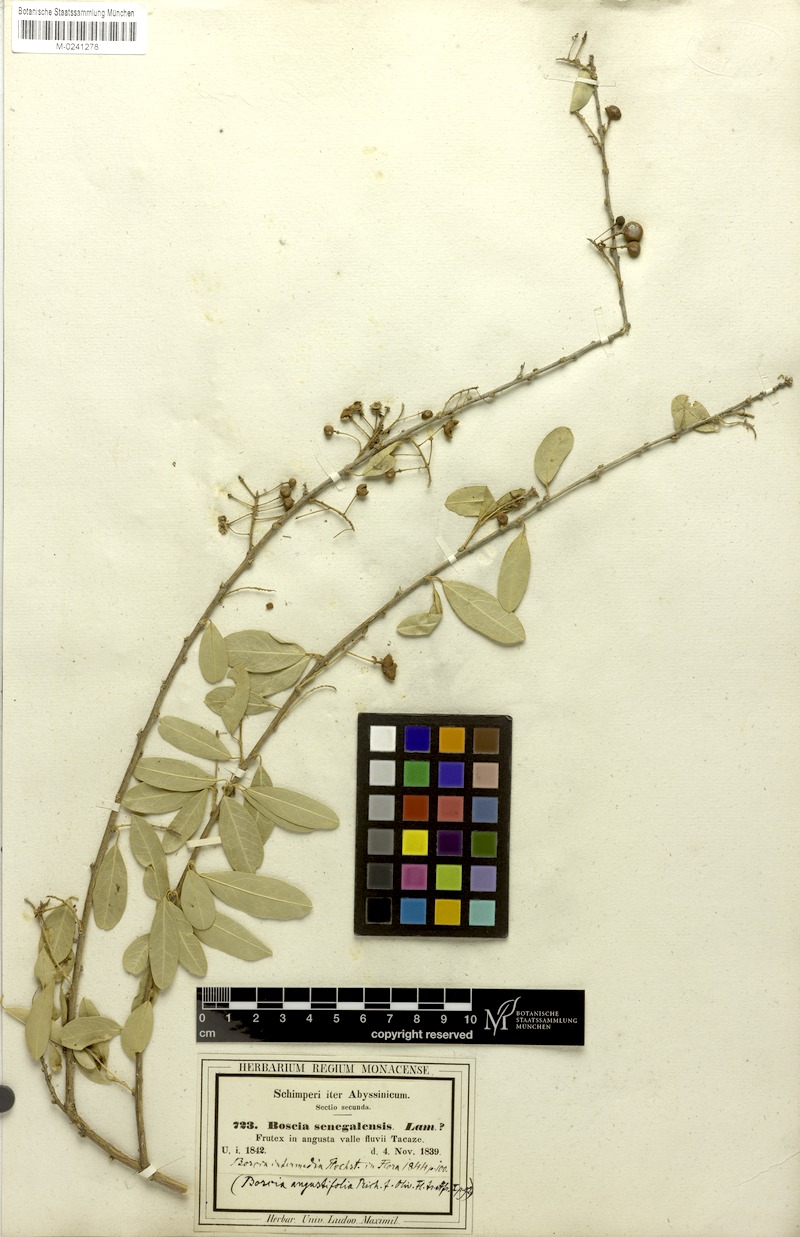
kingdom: Plantae
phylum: Tracheophyta
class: Magnoliopsida
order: Brassicales
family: Capparaceae
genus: Boscia
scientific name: Boscia angustifolia
